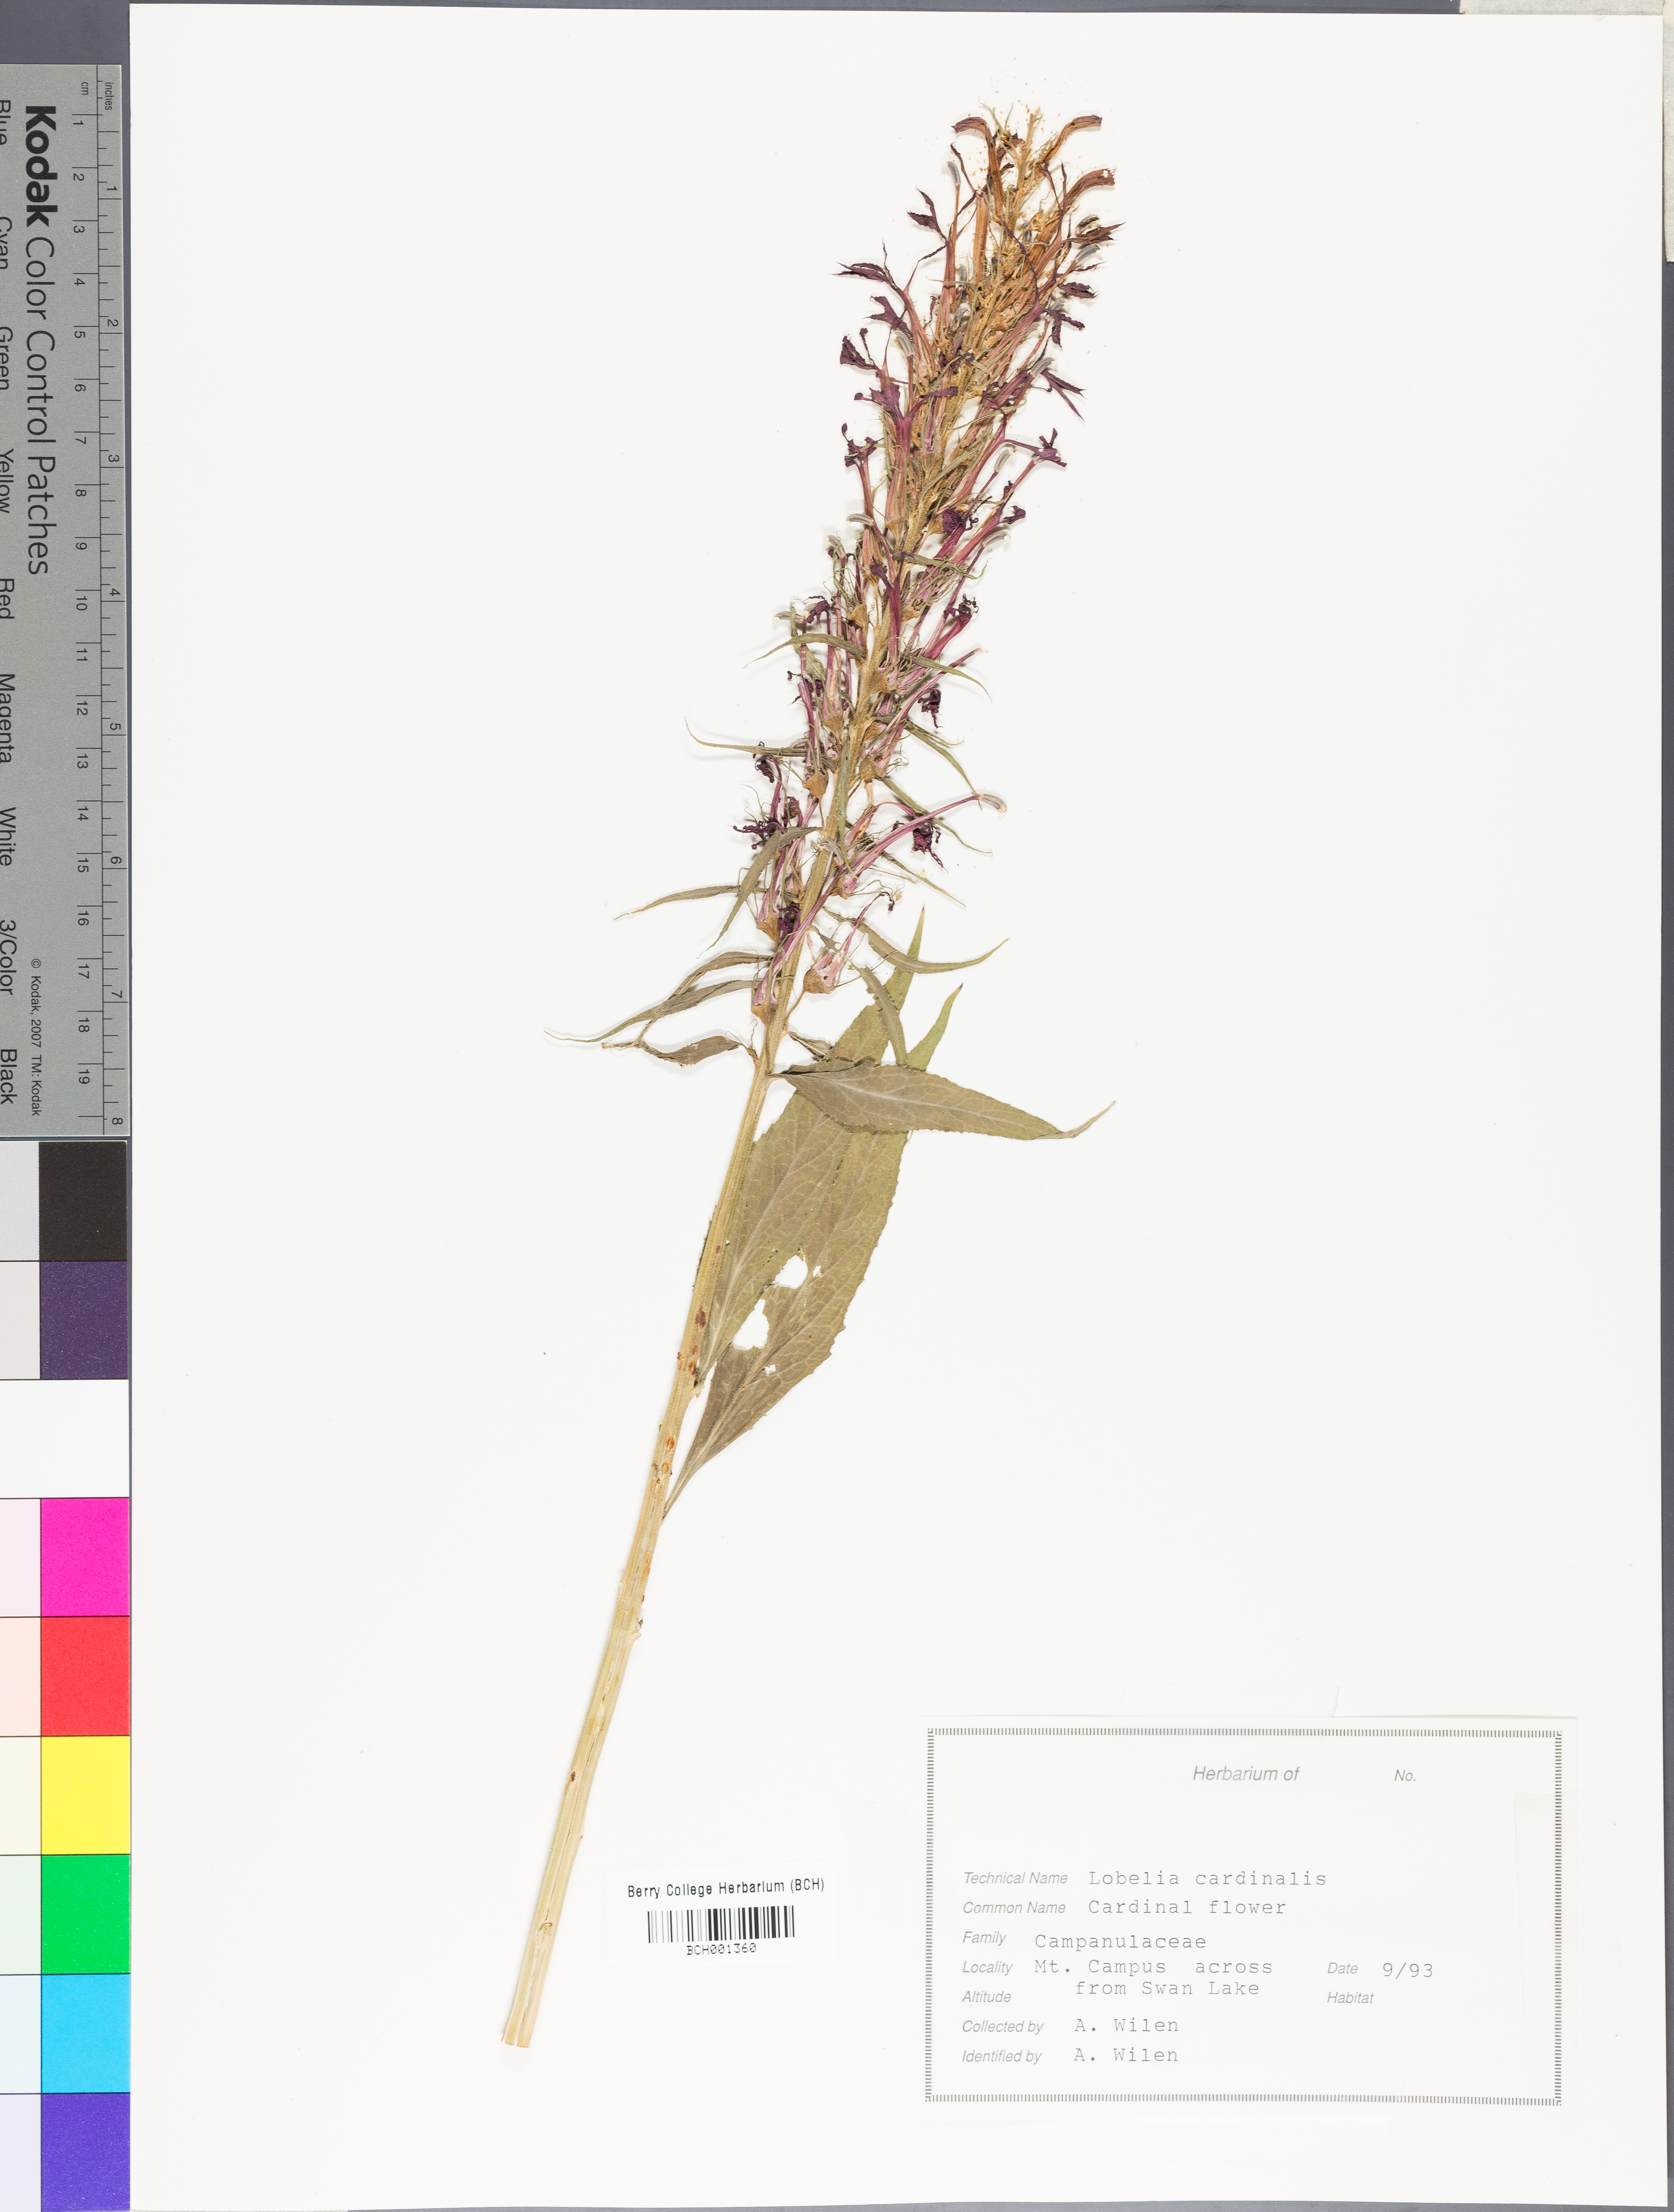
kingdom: Plantae
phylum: Tracheophyta
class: Magnoliopsida
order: Apiales
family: Apiaceae
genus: Lomatium
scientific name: Lomatium californicum
